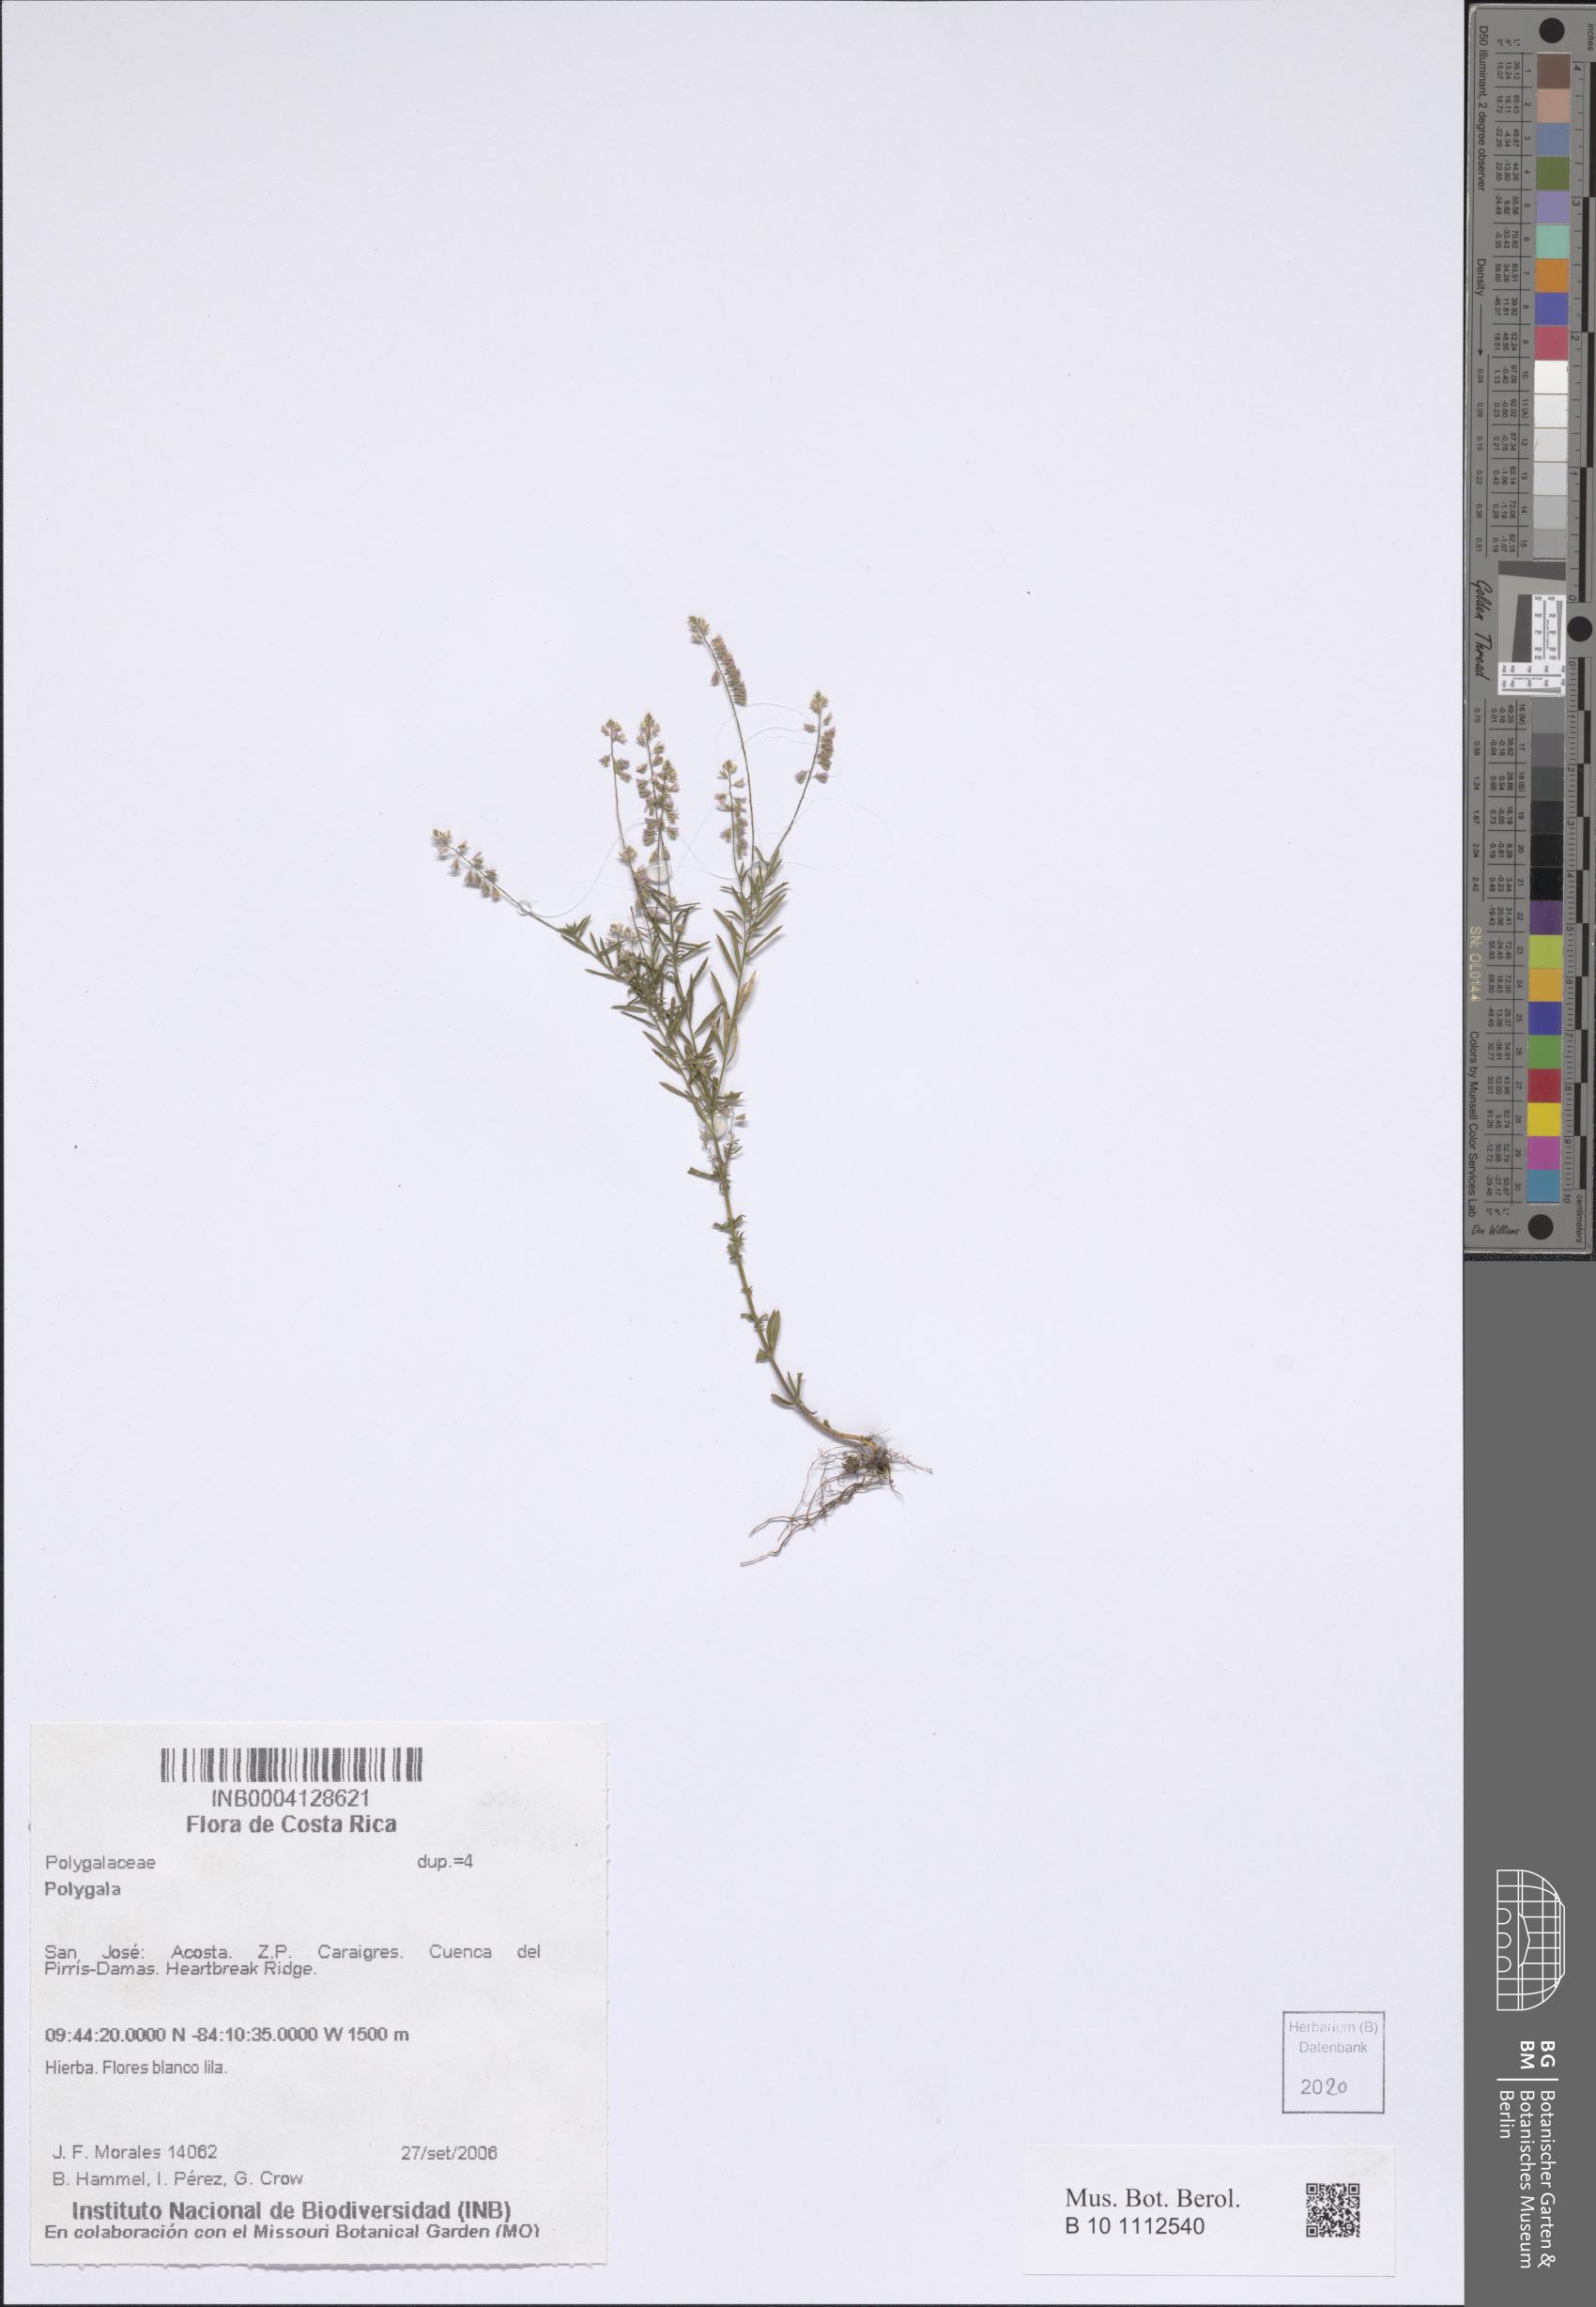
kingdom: Plantae
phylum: Tracheophyta
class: Magnoliopsida
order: Fabales
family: Polygalaceae
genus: Polygala
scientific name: Polygala
